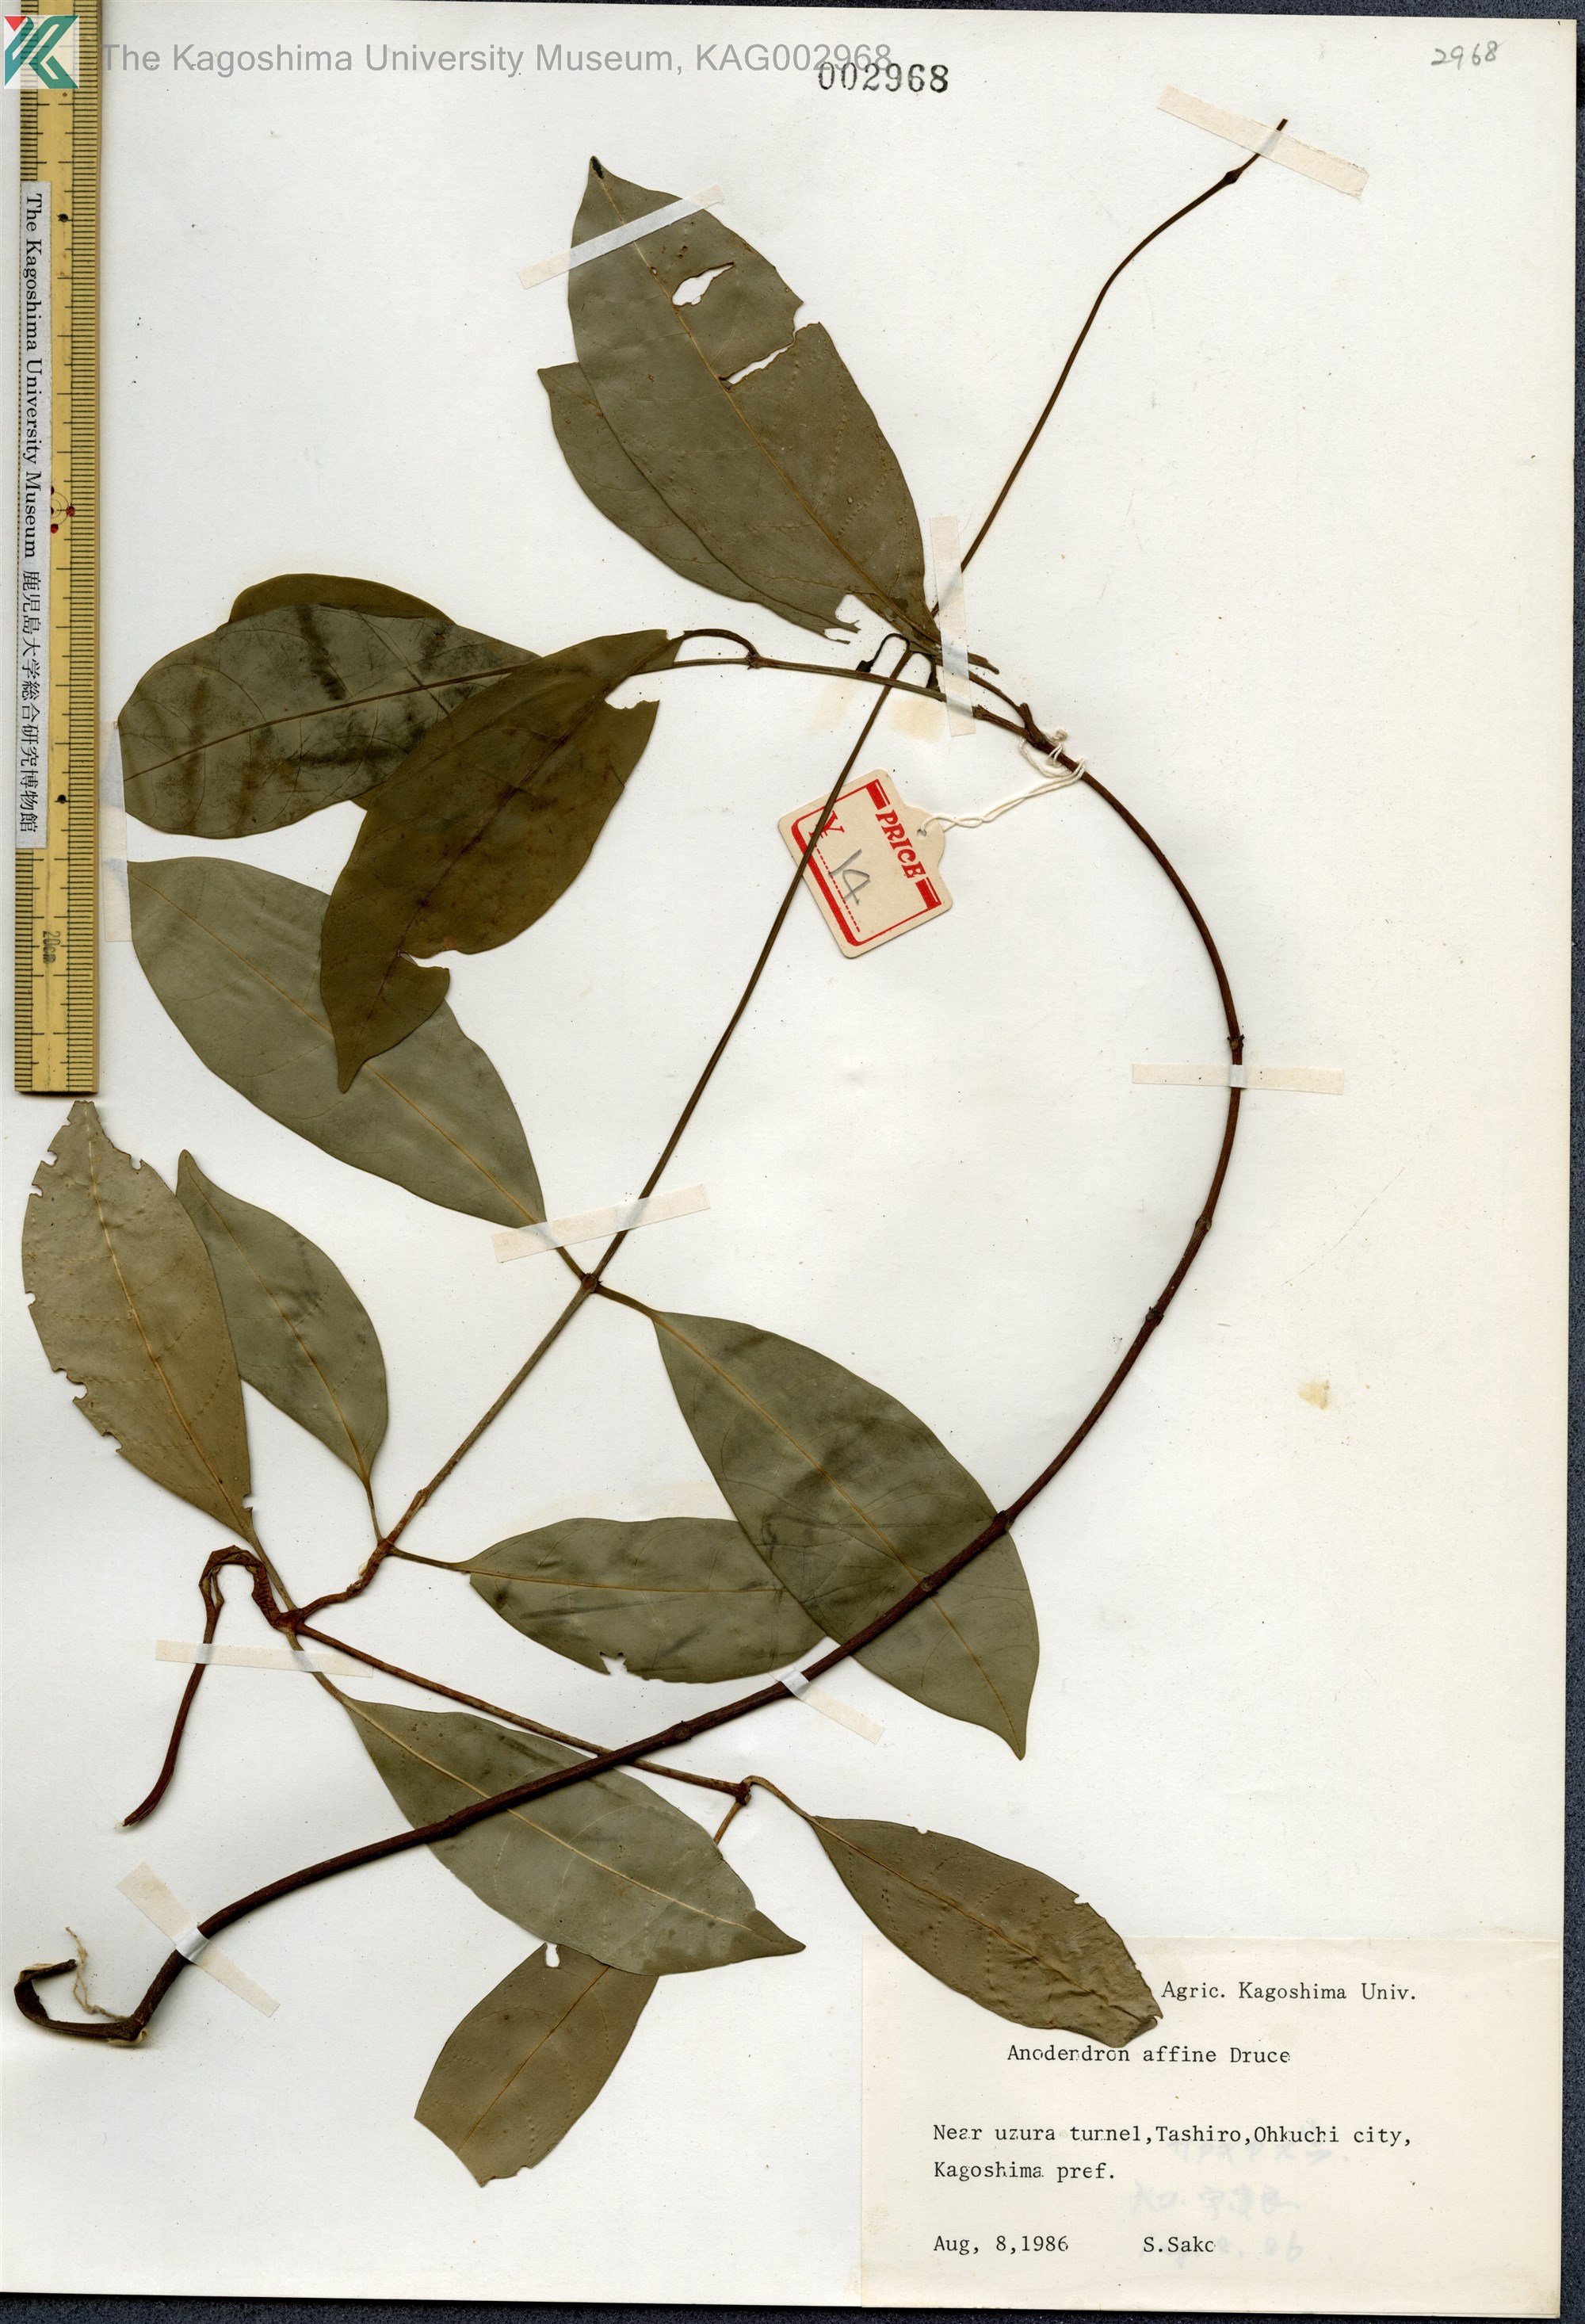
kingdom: Plantae
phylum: Tracheophyta
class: Magnoliopsida
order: Gentianales
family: Apocynaceae
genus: Anodendron
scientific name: Anodendron affine
